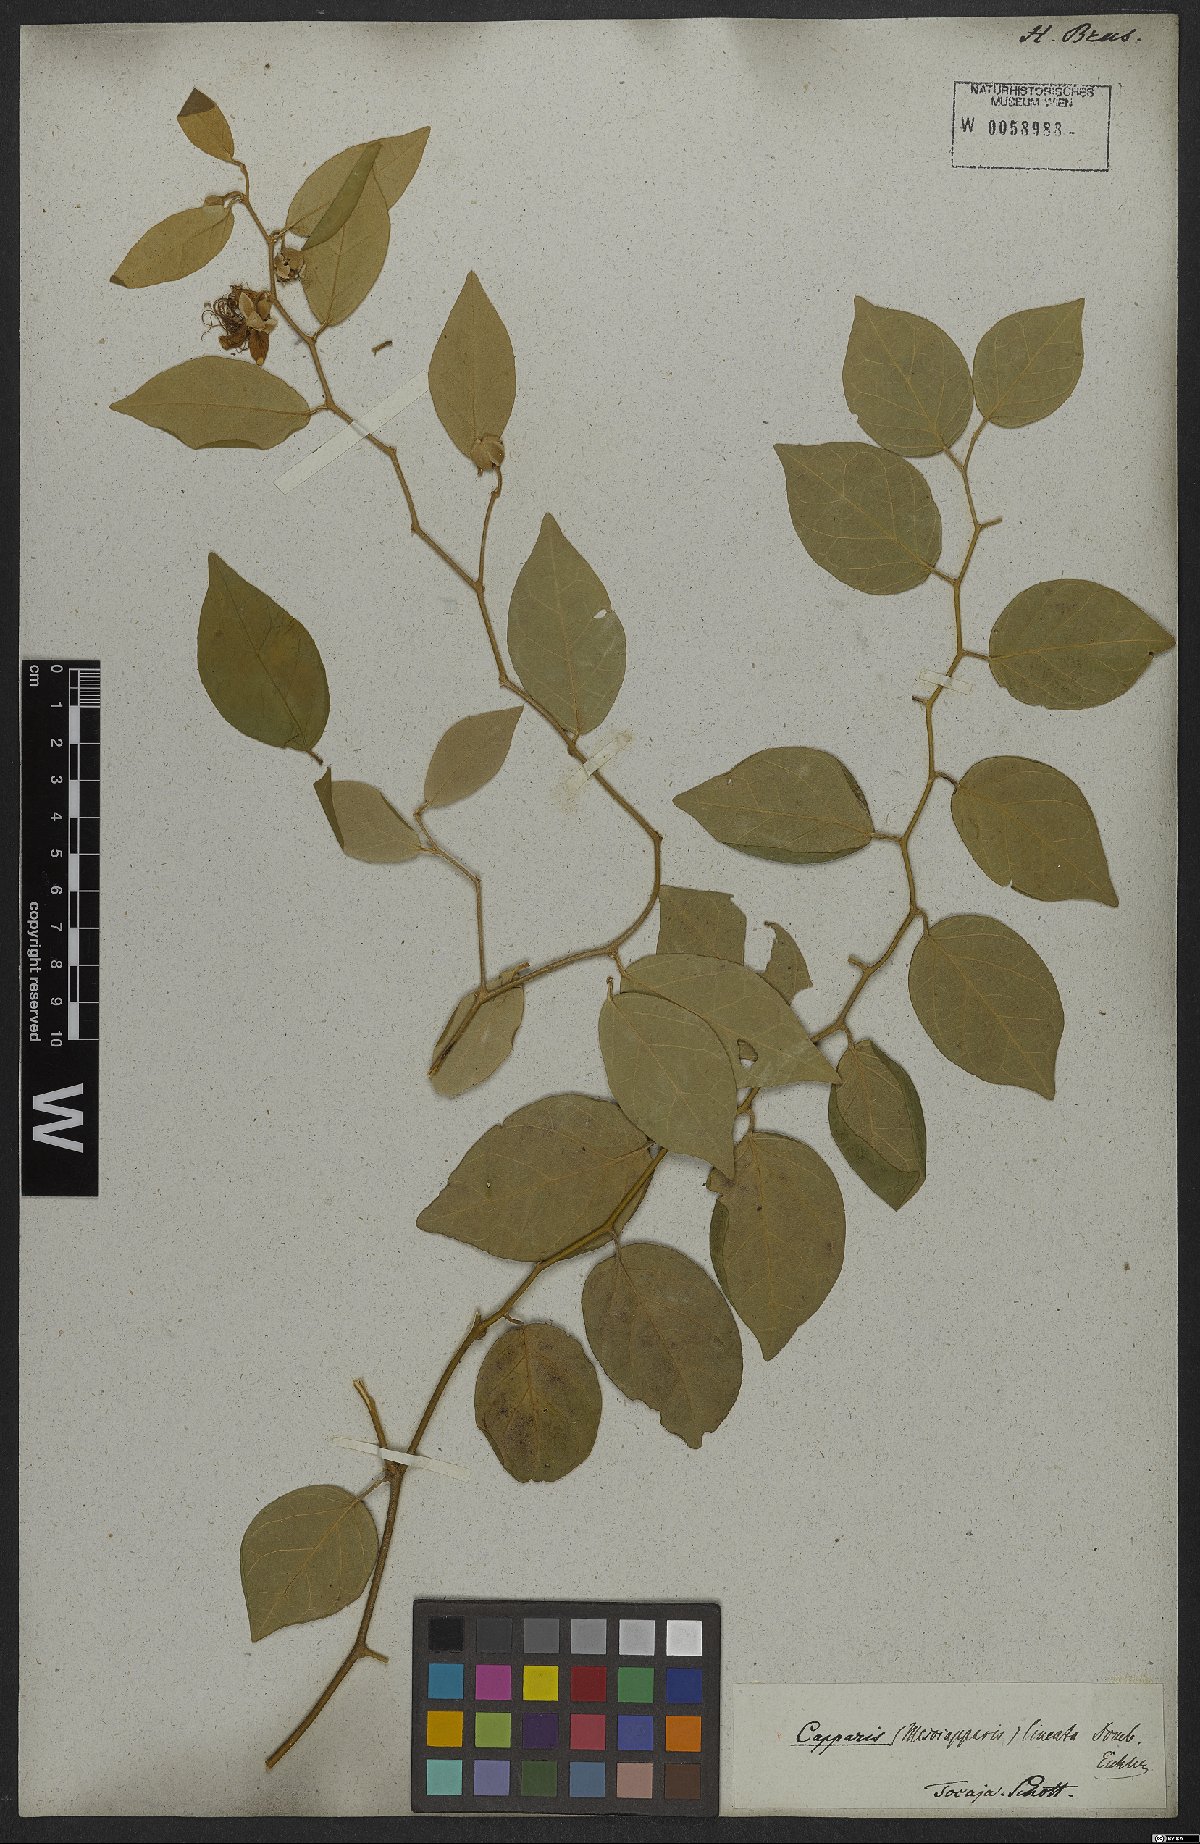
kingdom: Plantae
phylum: Tracheophyta
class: Magnoliopsida
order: Brassicales
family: Capparaceae
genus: Mesocapparis
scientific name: Mesocapparis lineata
